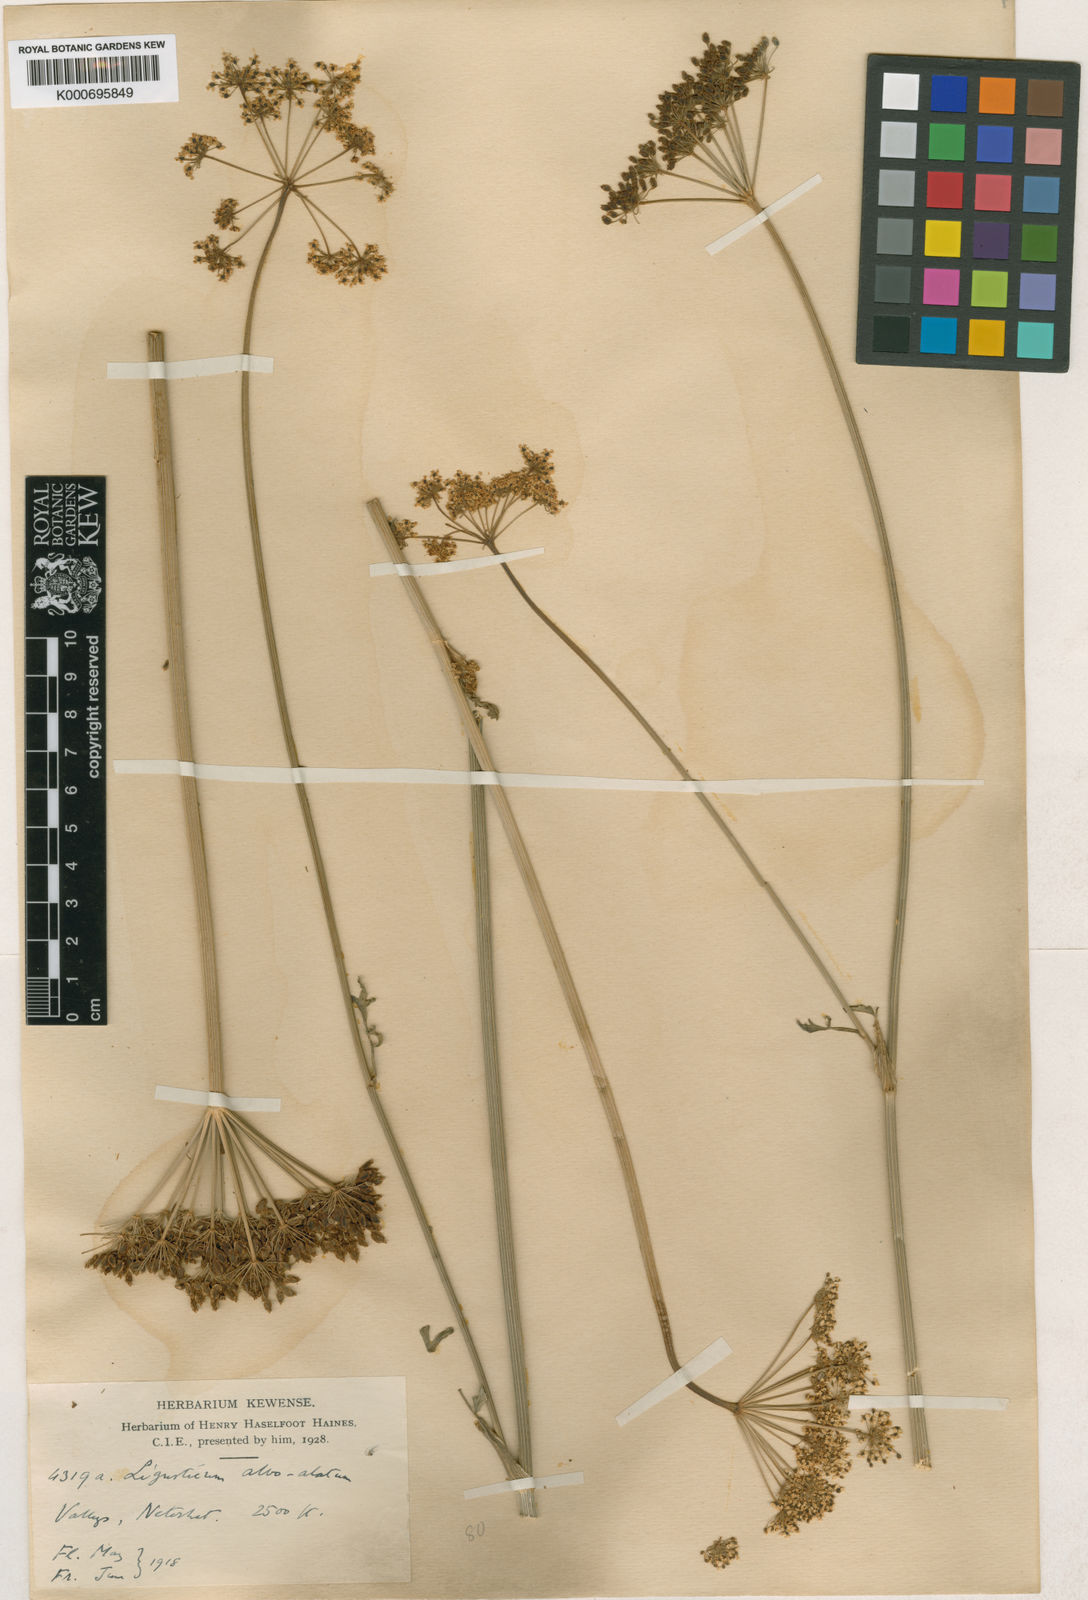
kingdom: Plantae
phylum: Tracheophyta
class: Magnoliopsida
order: Apiales
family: Apiaceae
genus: Seseli
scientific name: Seseli alboalatum
